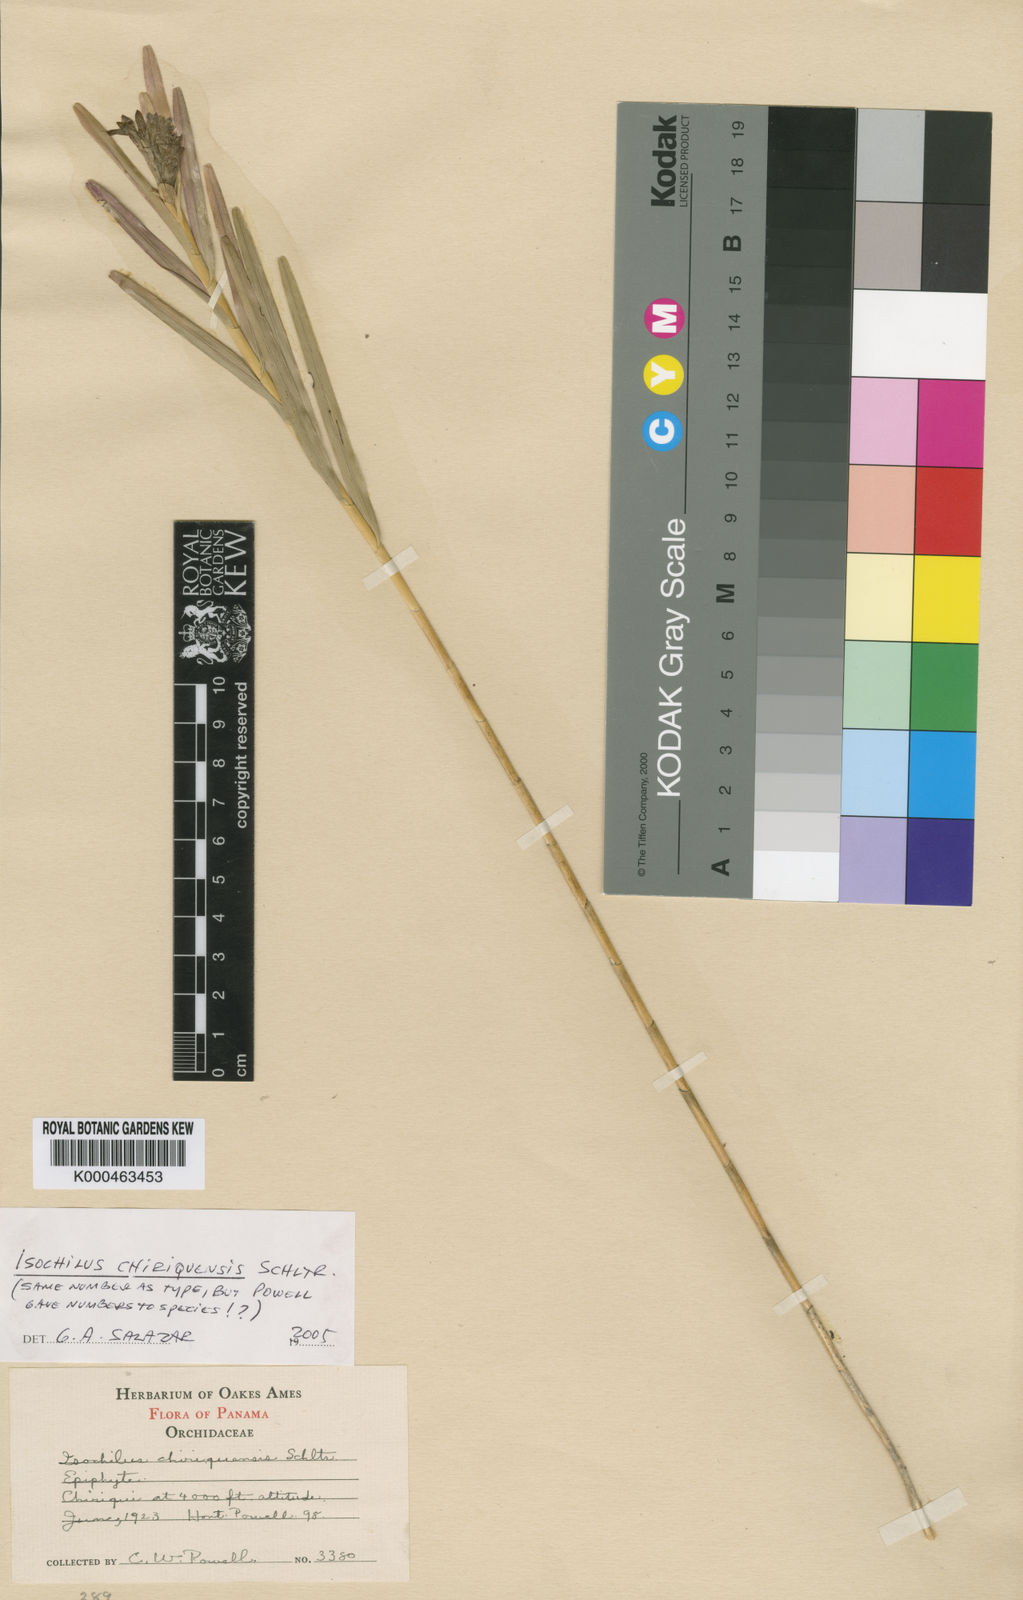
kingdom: Plantae
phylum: Tracheophyta
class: Liliopsida
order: Asparagales
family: Orchidaceae
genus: Isochilus
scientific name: Isochilus chiriquensis
